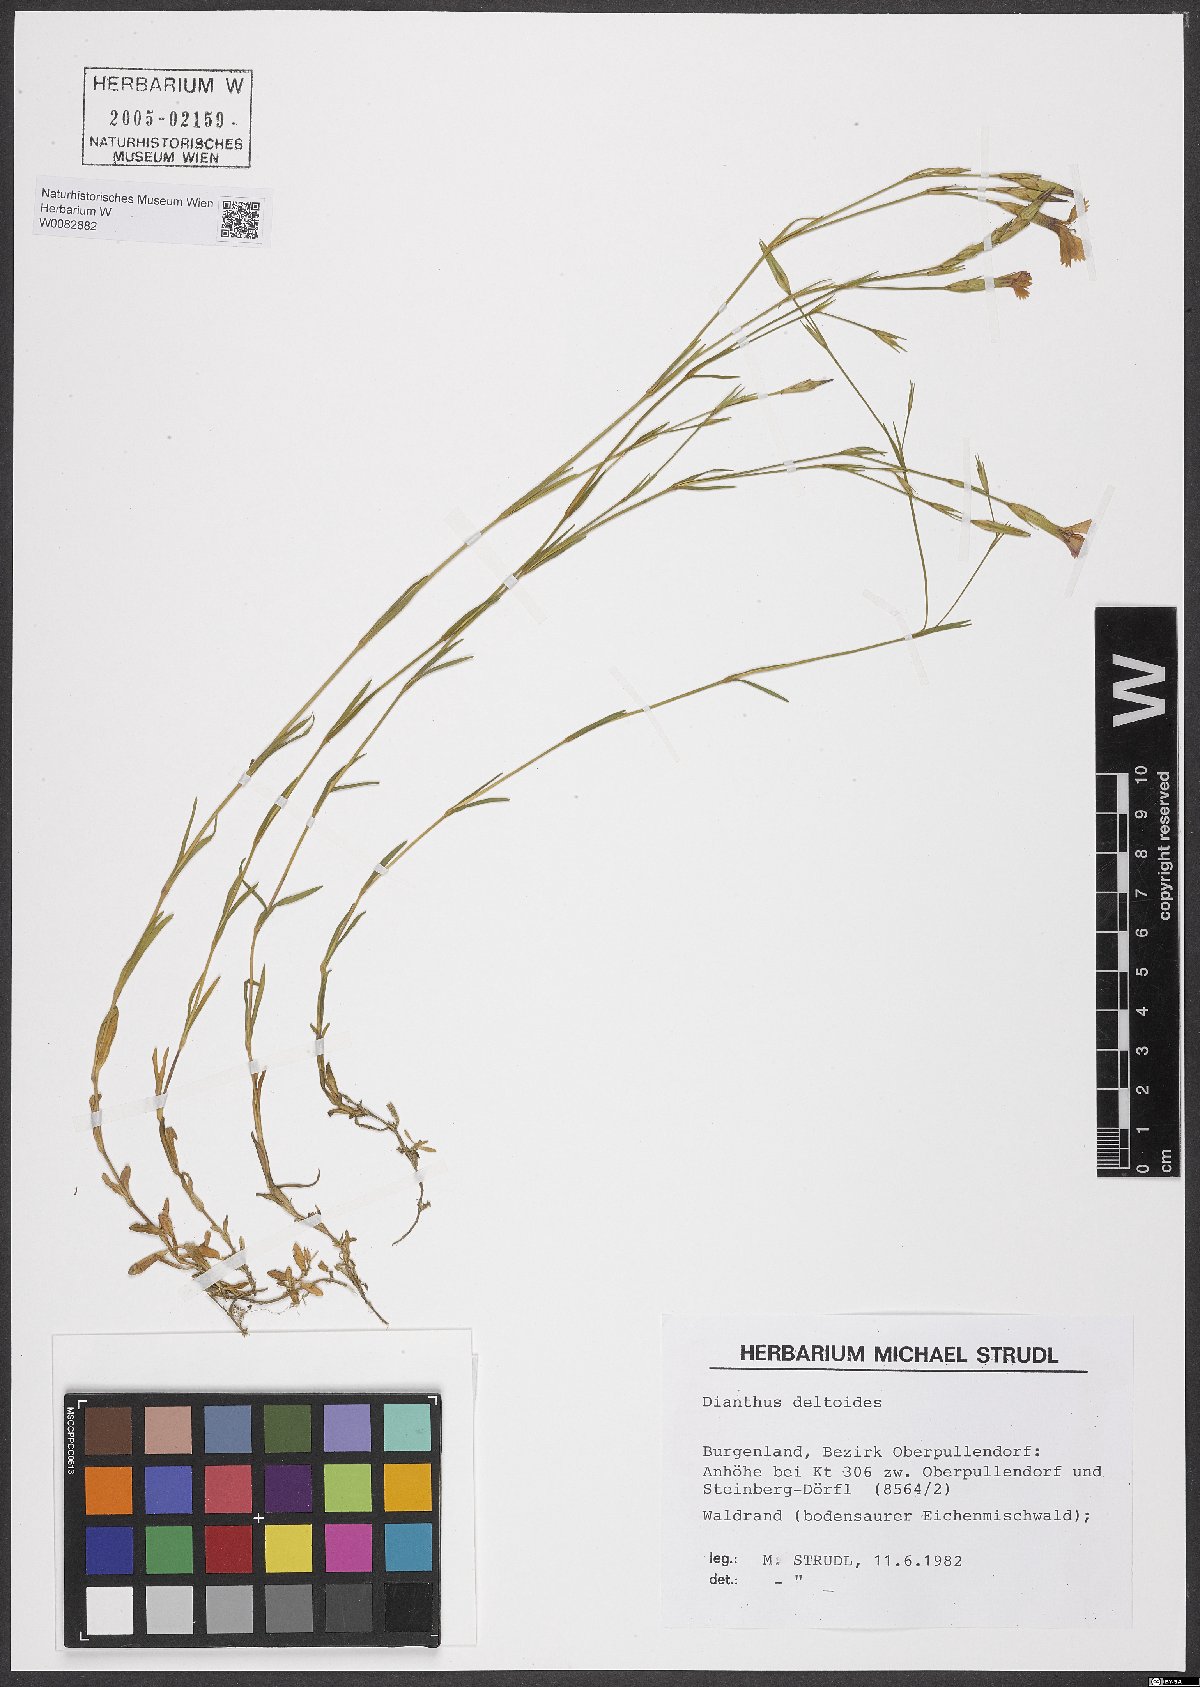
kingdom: Plantae
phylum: Tracheophyta
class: Magnoliopsida
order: Caryophyllales
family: Caryophyllaceae
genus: Dianthus
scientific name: Dianthus deltoides
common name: Maiden pink
